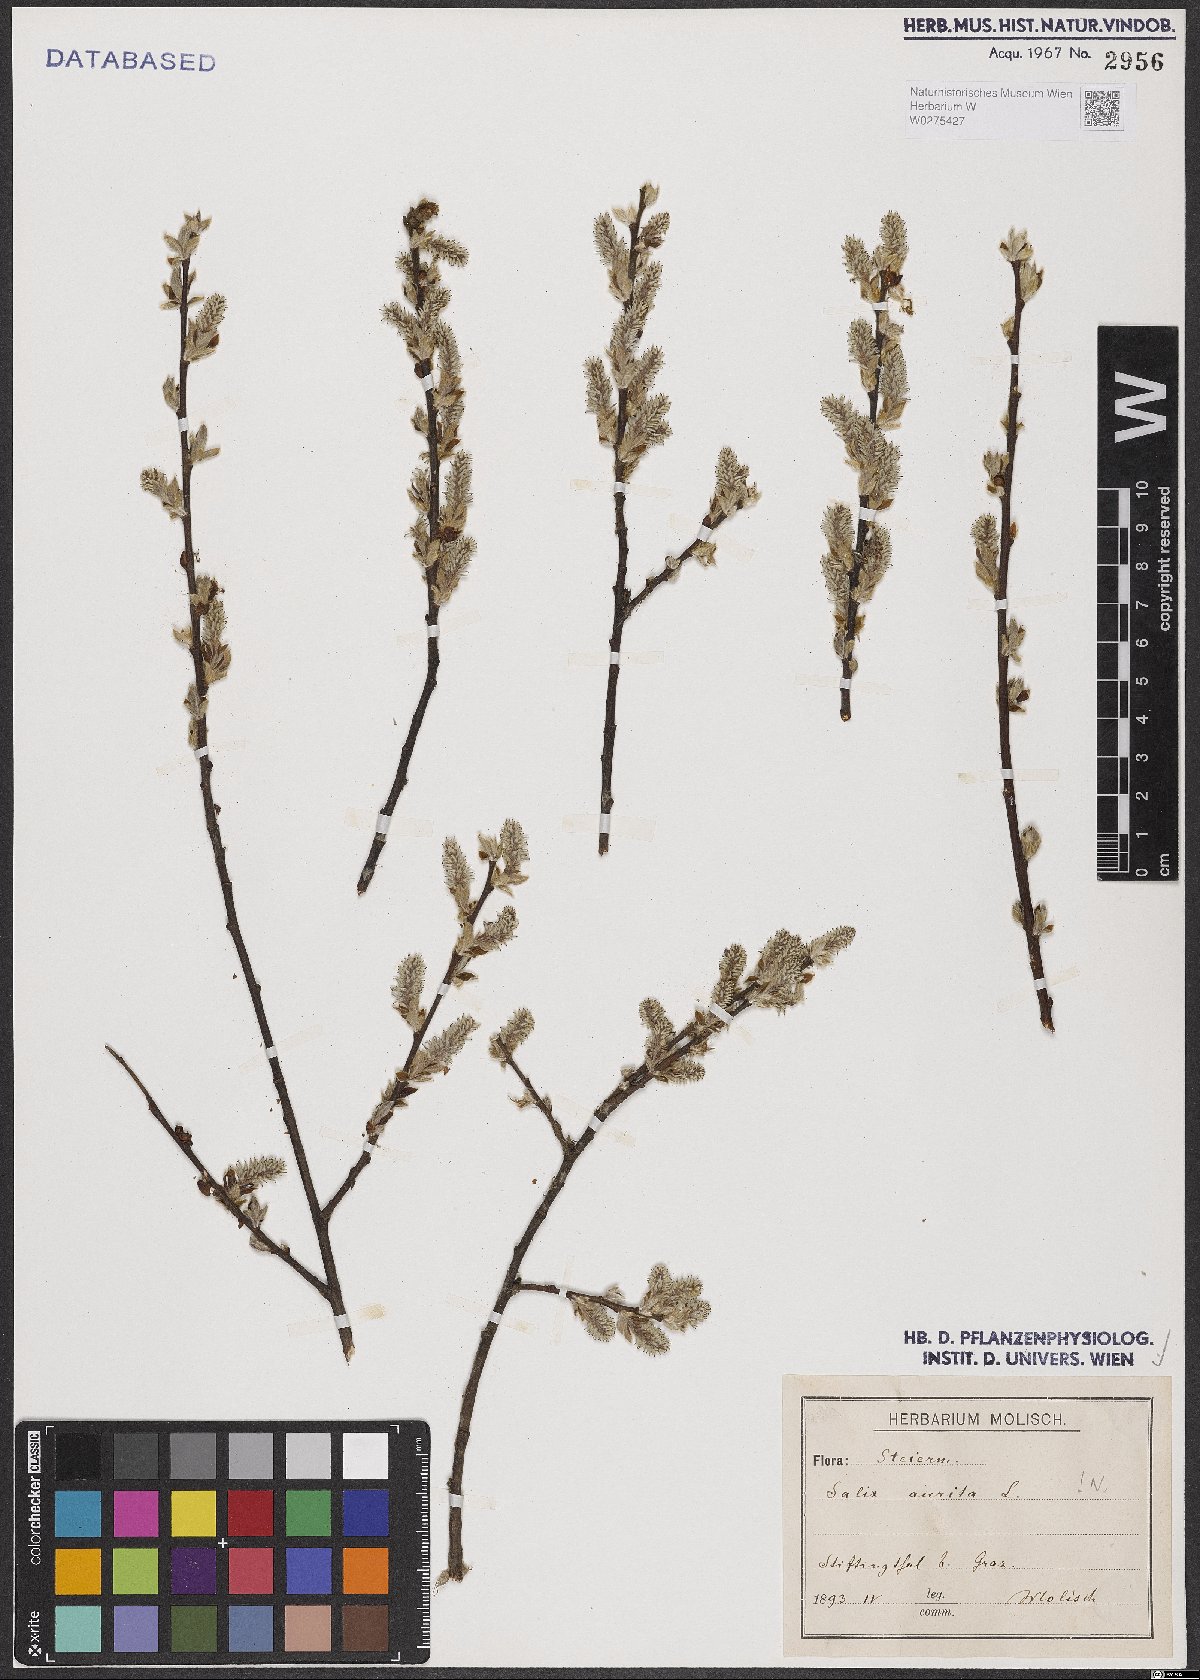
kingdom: Plantae
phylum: Tracheophyta
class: Magnoliopsida
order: Malpighiales
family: Salicaceae
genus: Salix
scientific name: Salix aurita
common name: Eared willow
